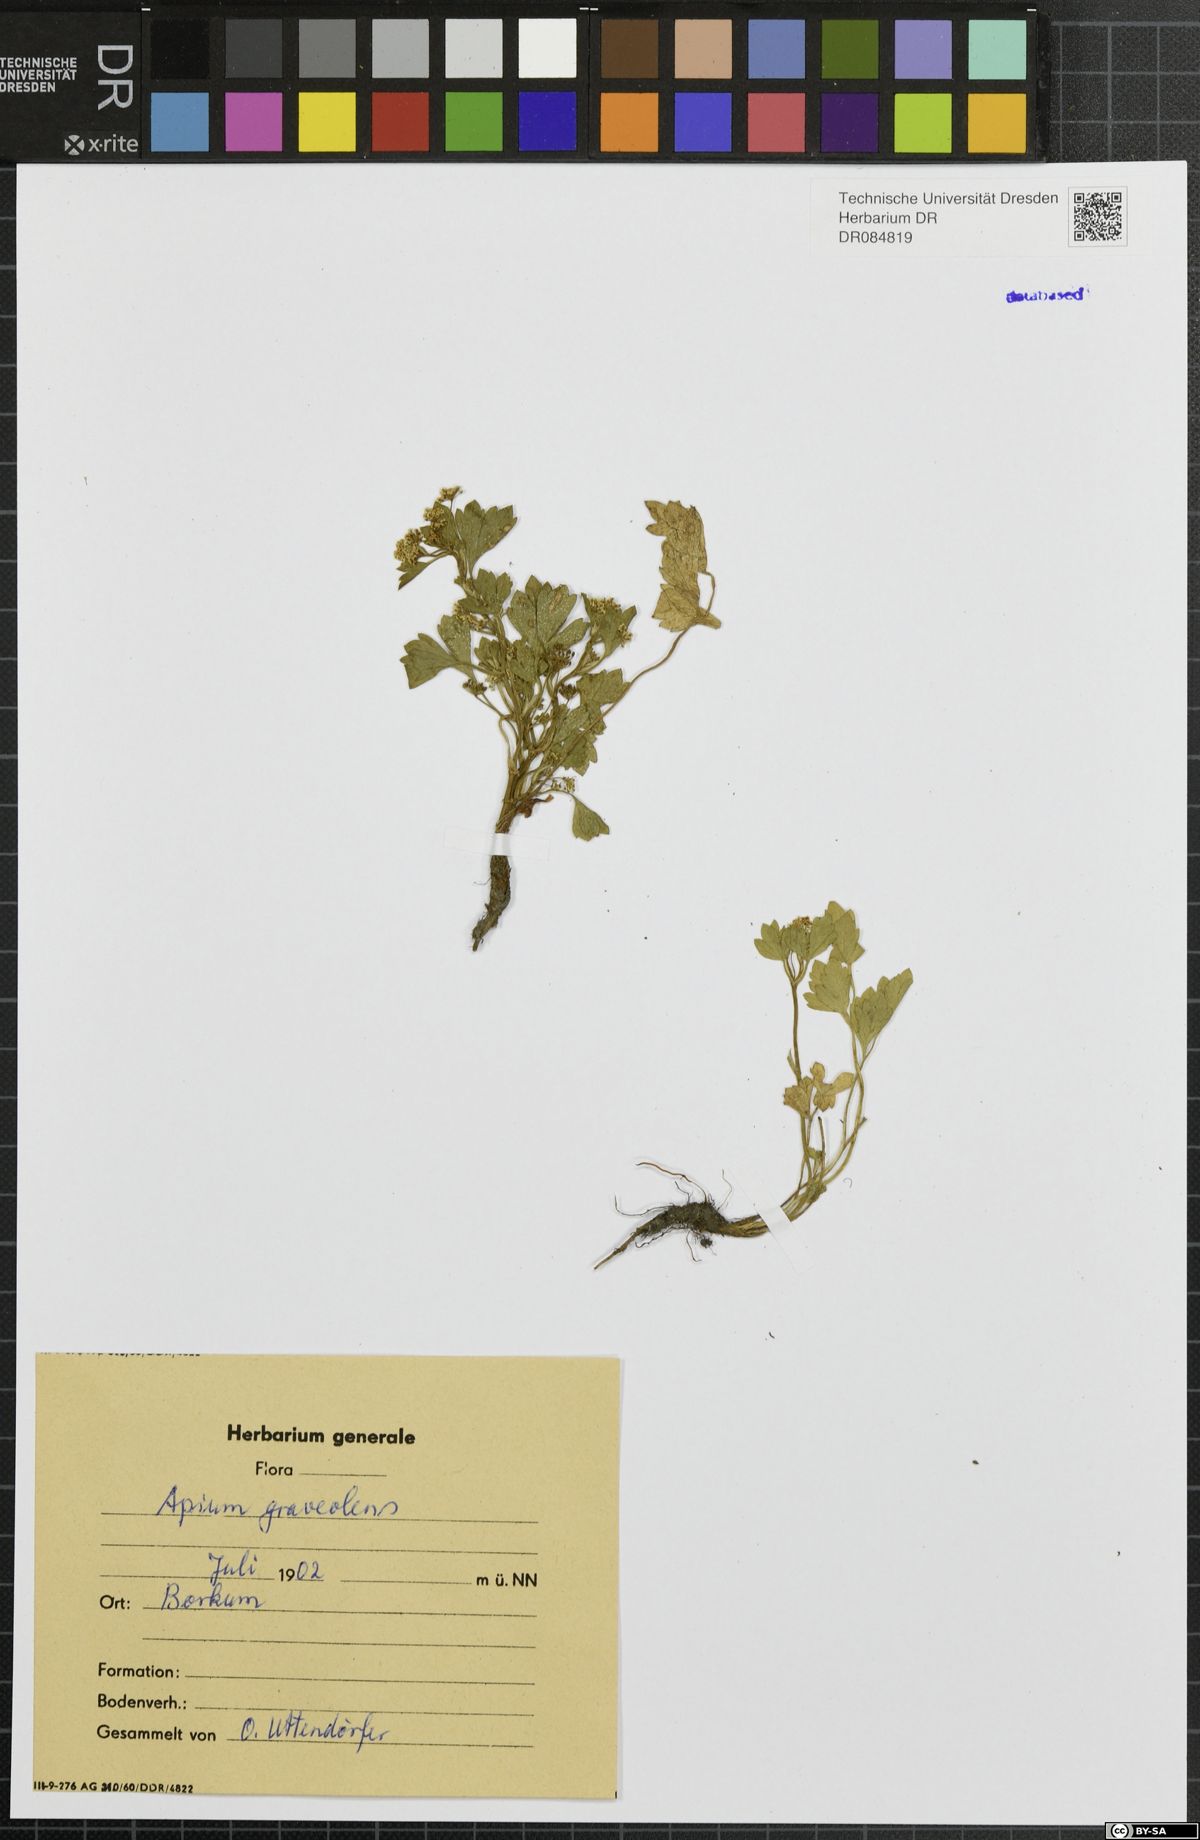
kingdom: Plantae
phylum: Tracheophyta
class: Magnoliopsida
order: Apiales
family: Apiaceae
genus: Apium
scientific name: Apium graveolens
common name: Wild celery
